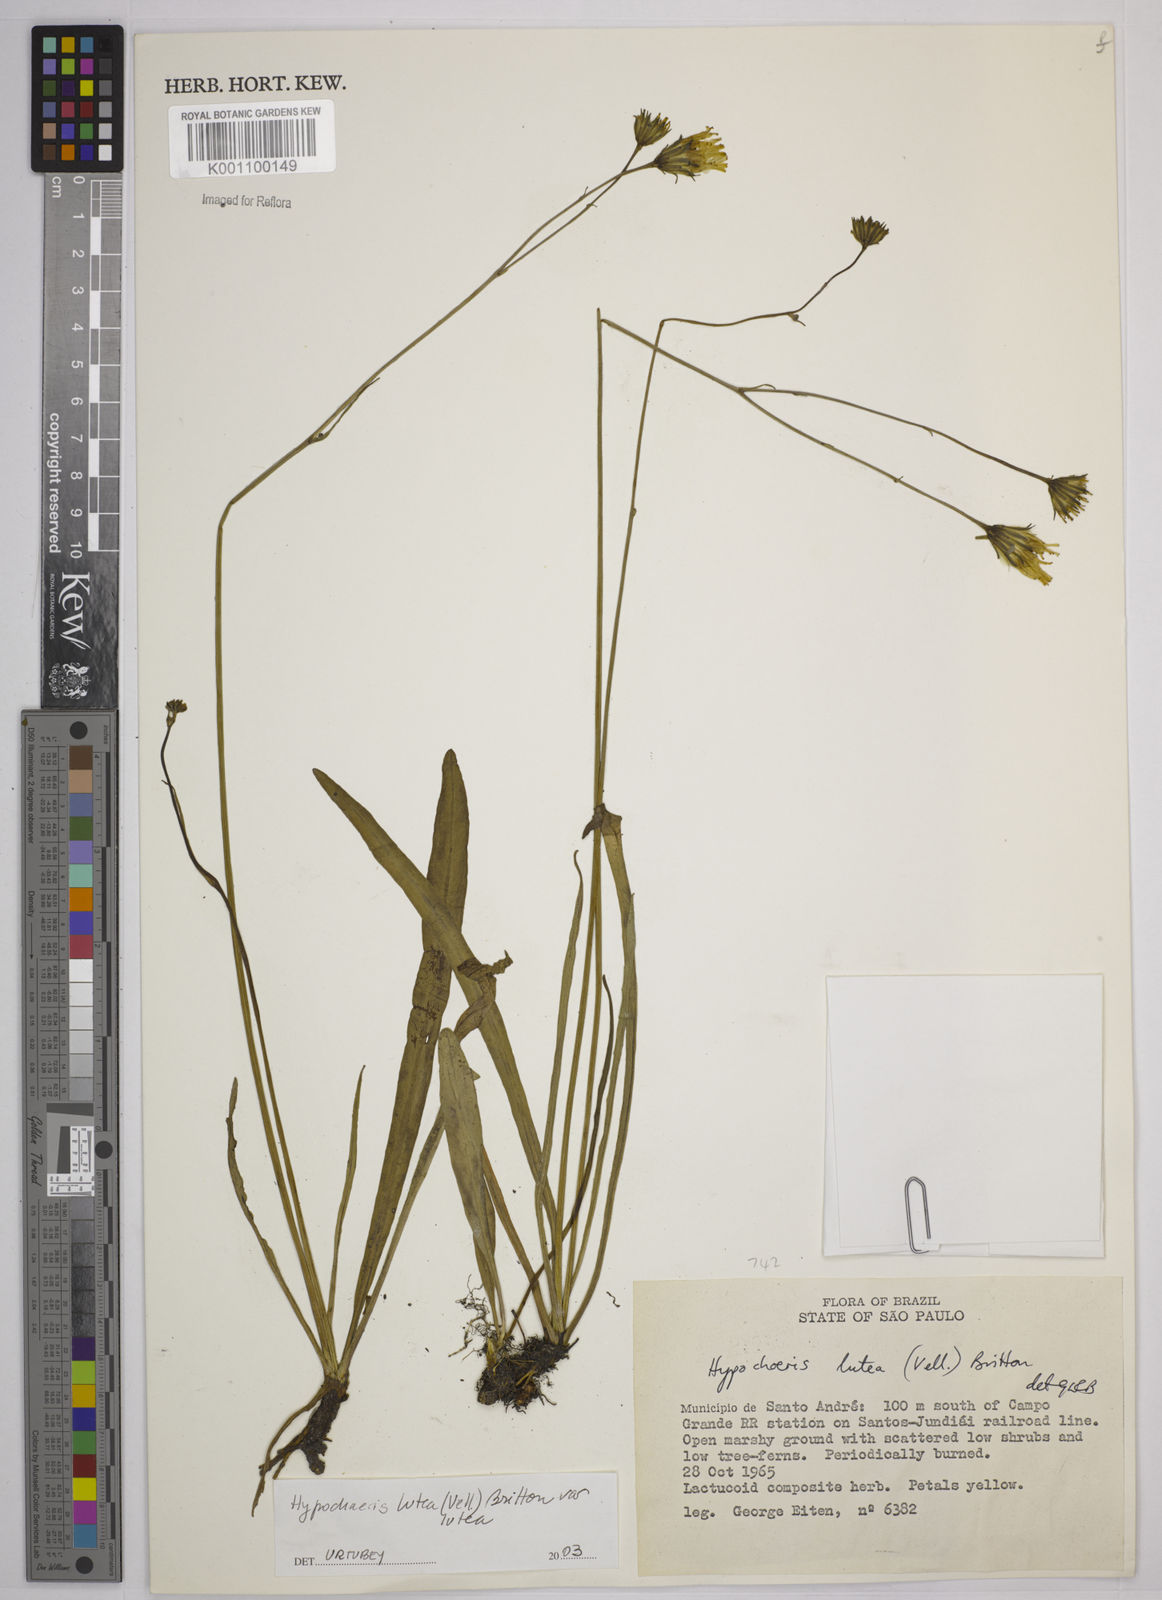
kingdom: Plantae
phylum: Tracheophyta
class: Magnoliopsida
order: Asterales
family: Asteraceae
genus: Hypochaeris
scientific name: Hypochaeris
